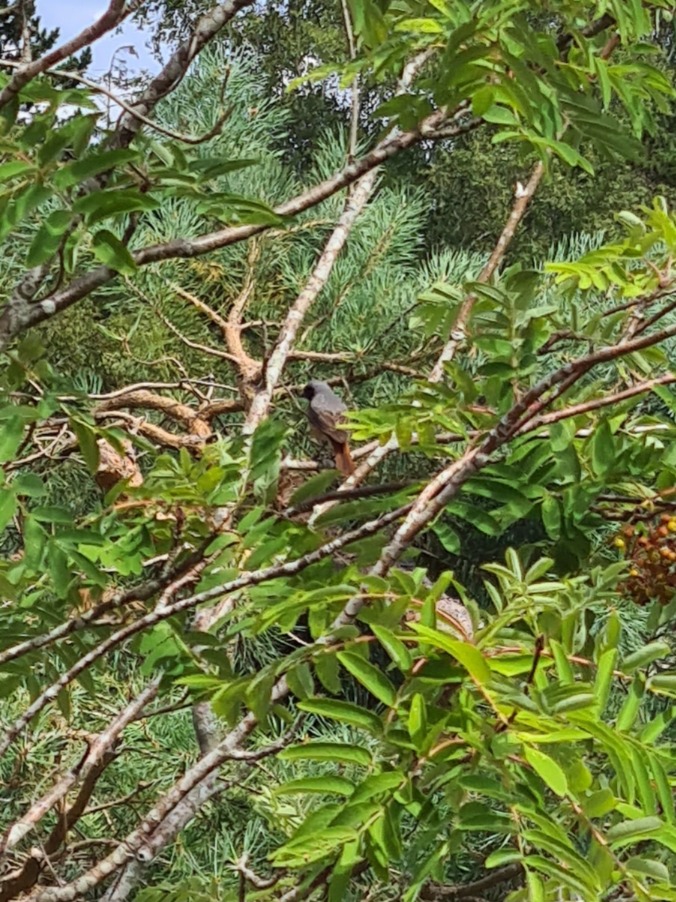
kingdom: Animalia
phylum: Chordata
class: Aves
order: Passeriformes
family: Muscicapidae
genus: Phoenicurus
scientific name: Phoenicurus phoenicurus
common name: Rødstjert
